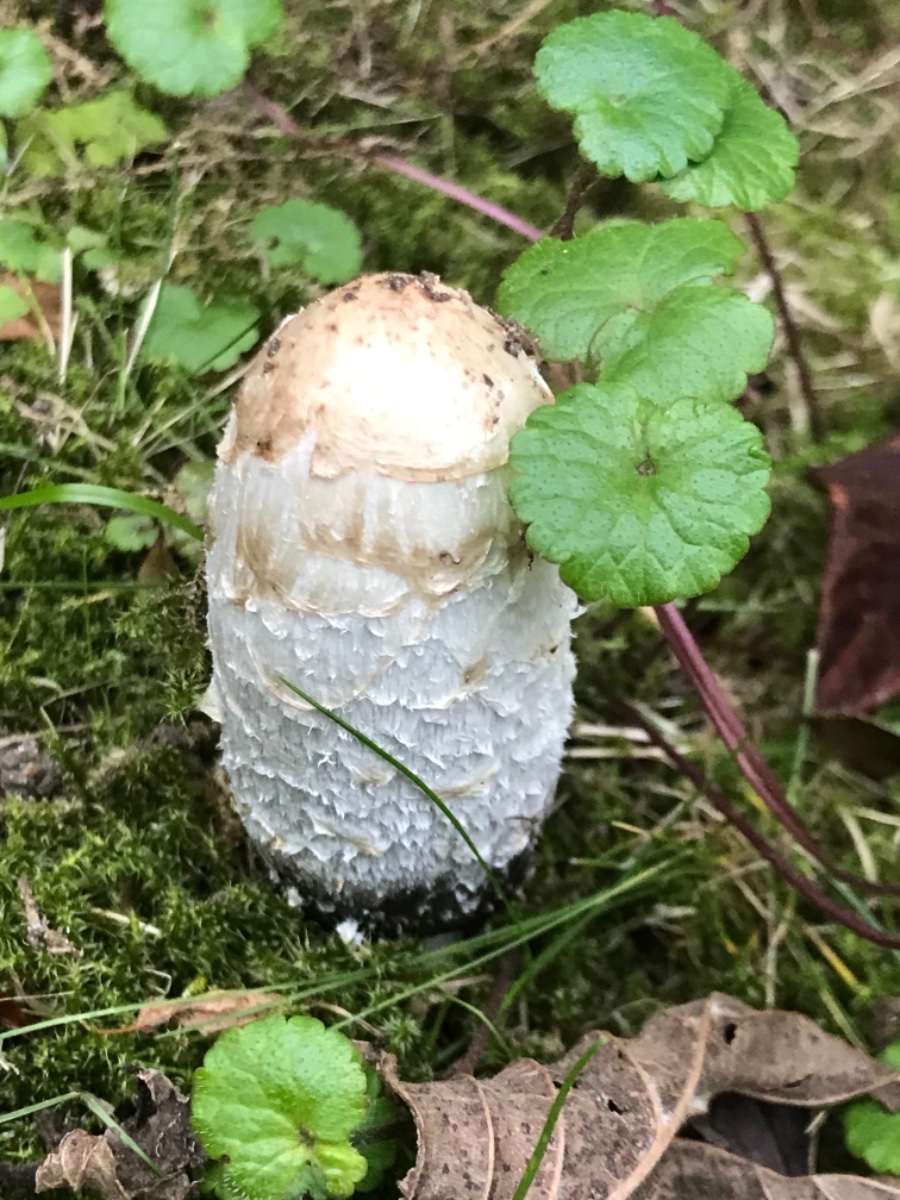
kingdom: Fungi
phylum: Basidiomycota
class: Agaricomycetes
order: Agaricales
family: Agaricaceae
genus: Coprinus
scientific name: Coprinus comatus
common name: stor parykhat
